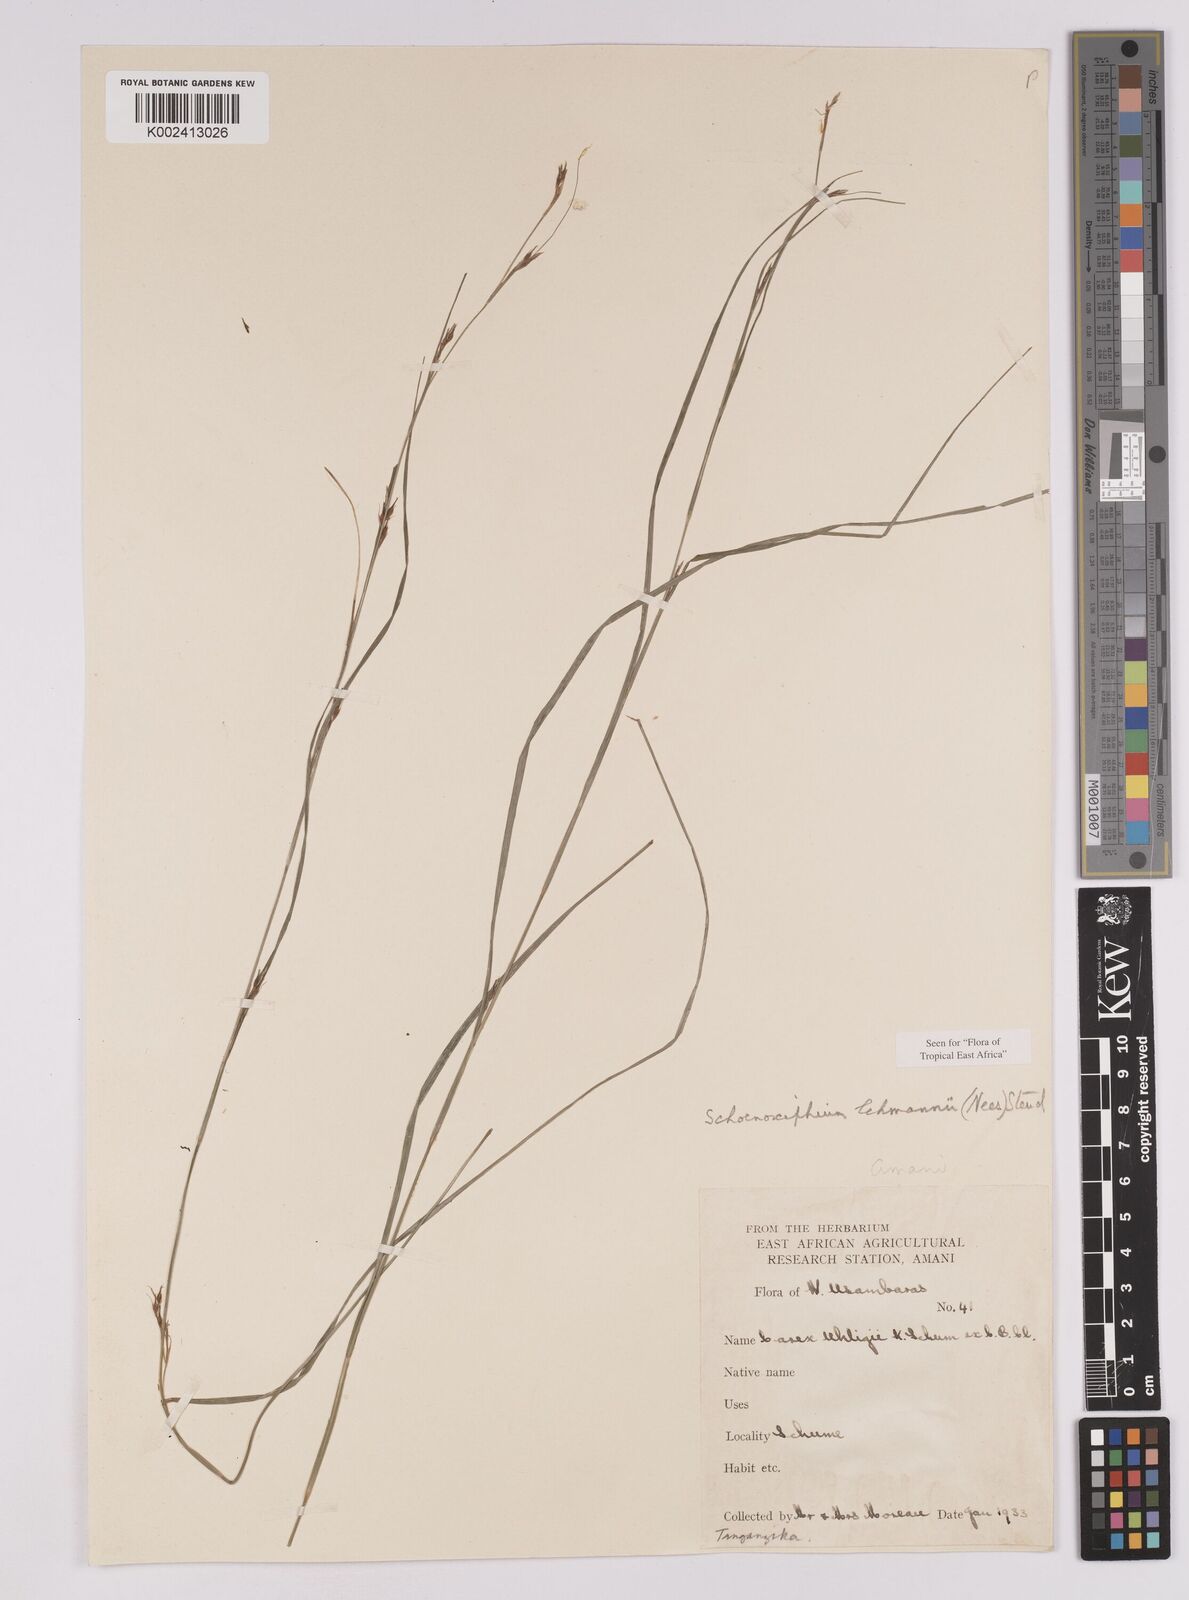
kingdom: Plantae
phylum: Tracheophyta
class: Liliopsida
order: Poales
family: Cyperaceae
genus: Carex
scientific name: Carex uhligii
